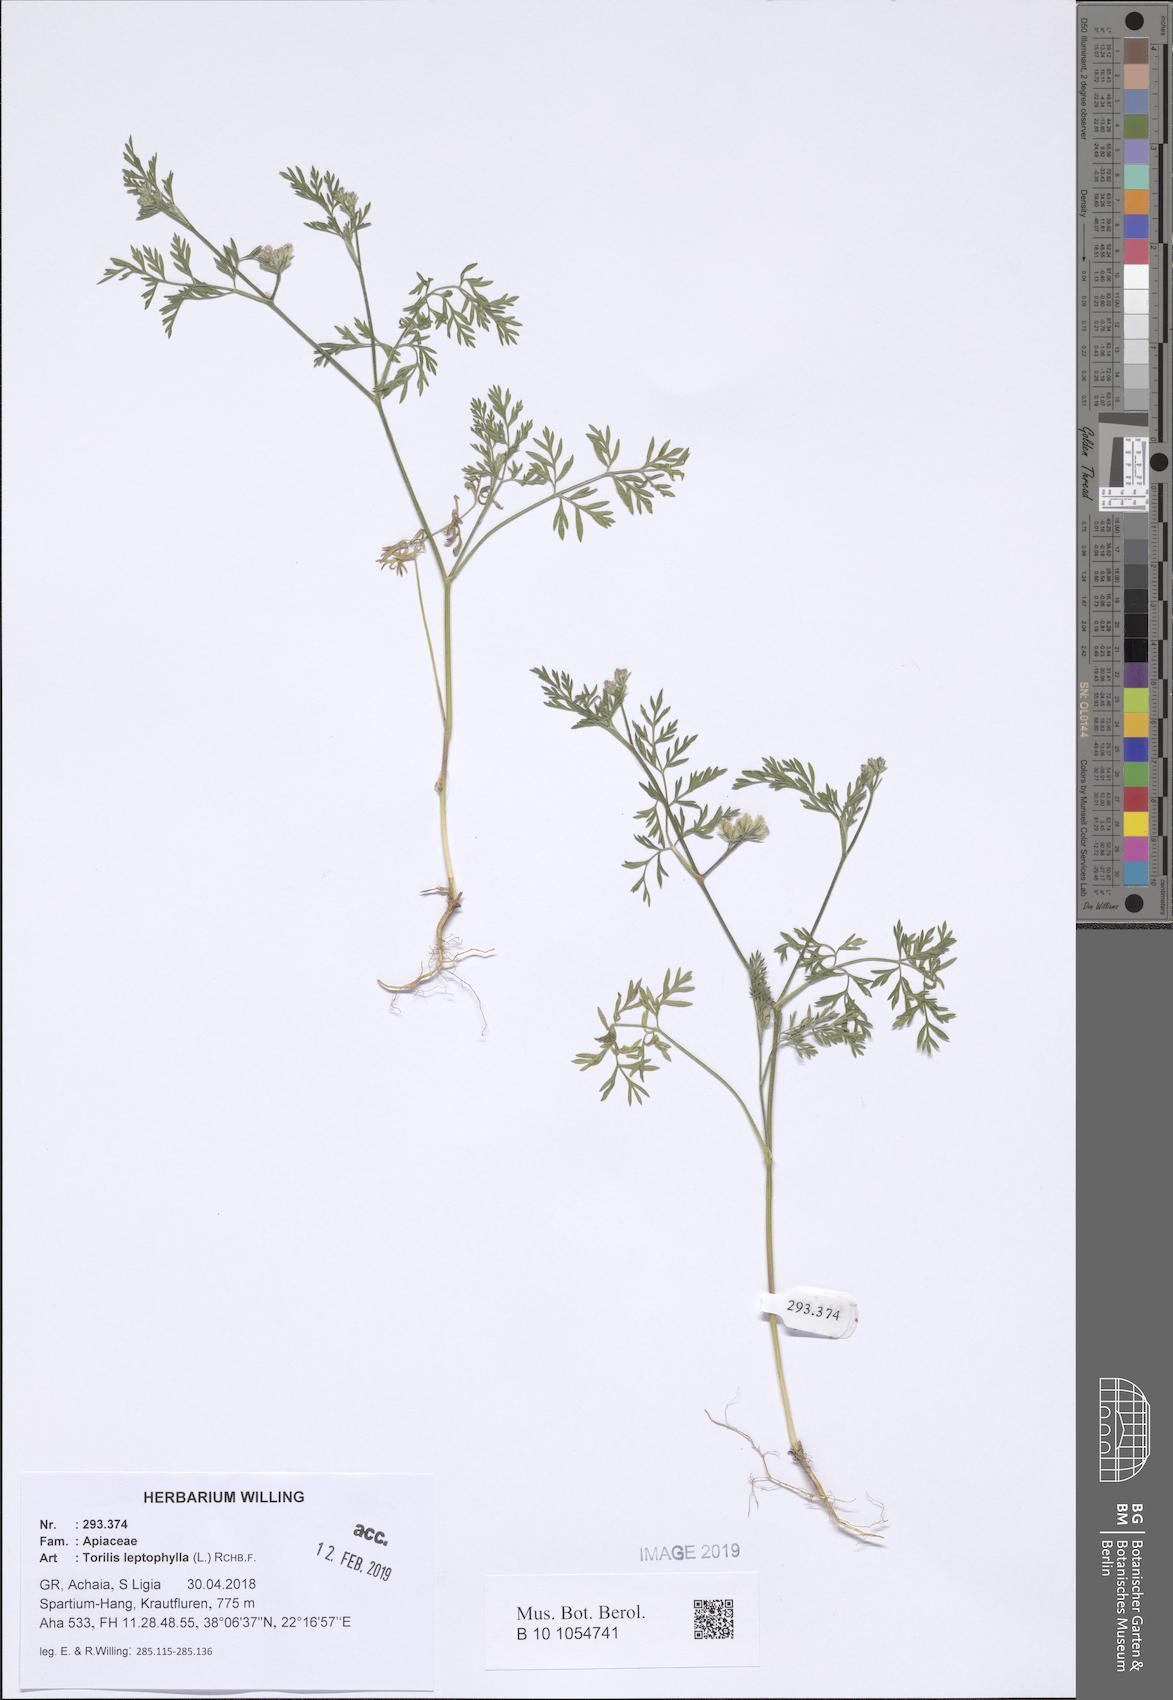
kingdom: Plantae
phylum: Tracheophyta
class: Magnoliopsida
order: Apiales
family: Apiaceae
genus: Torilis
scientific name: Torilis leptophylla
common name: Bristlefruit hedgeparsley
